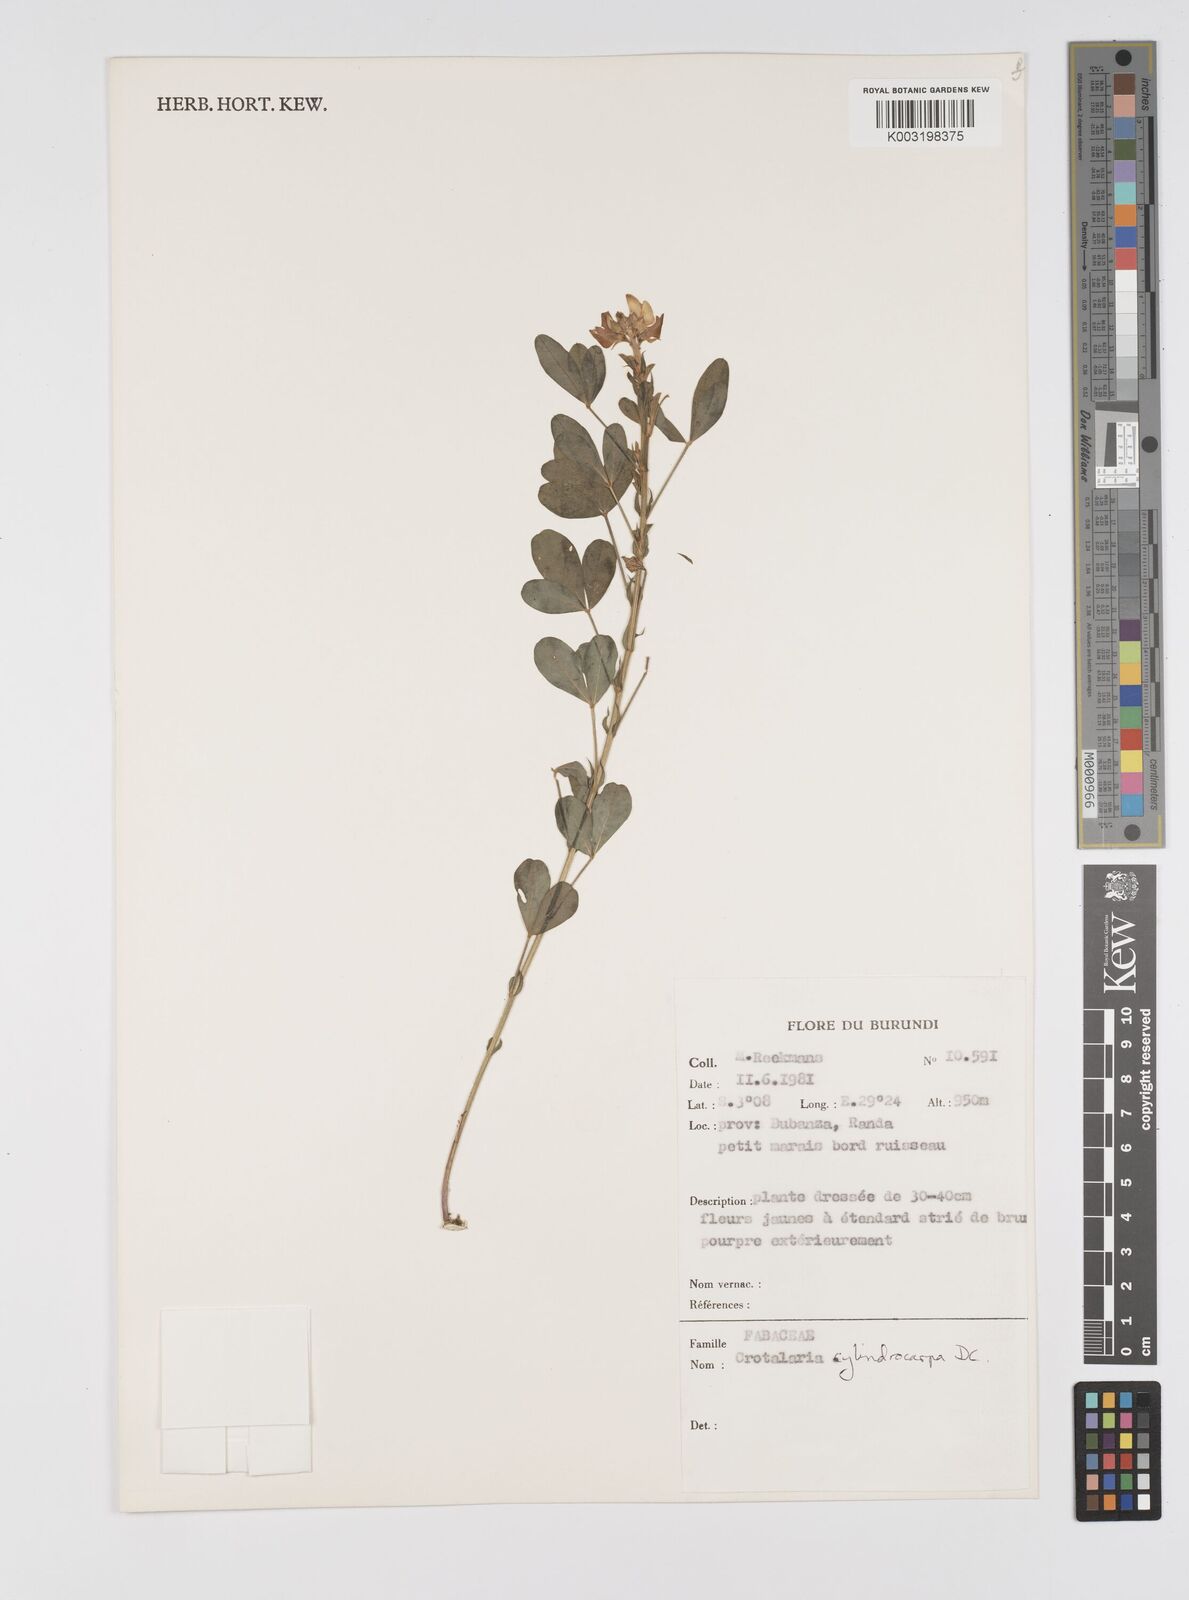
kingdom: Plantae
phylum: Tracheophyta
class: Magnoliopsida
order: Fabales
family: Fabaceae
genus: Crotalaria
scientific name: Crotalaria cylindrocarpa
